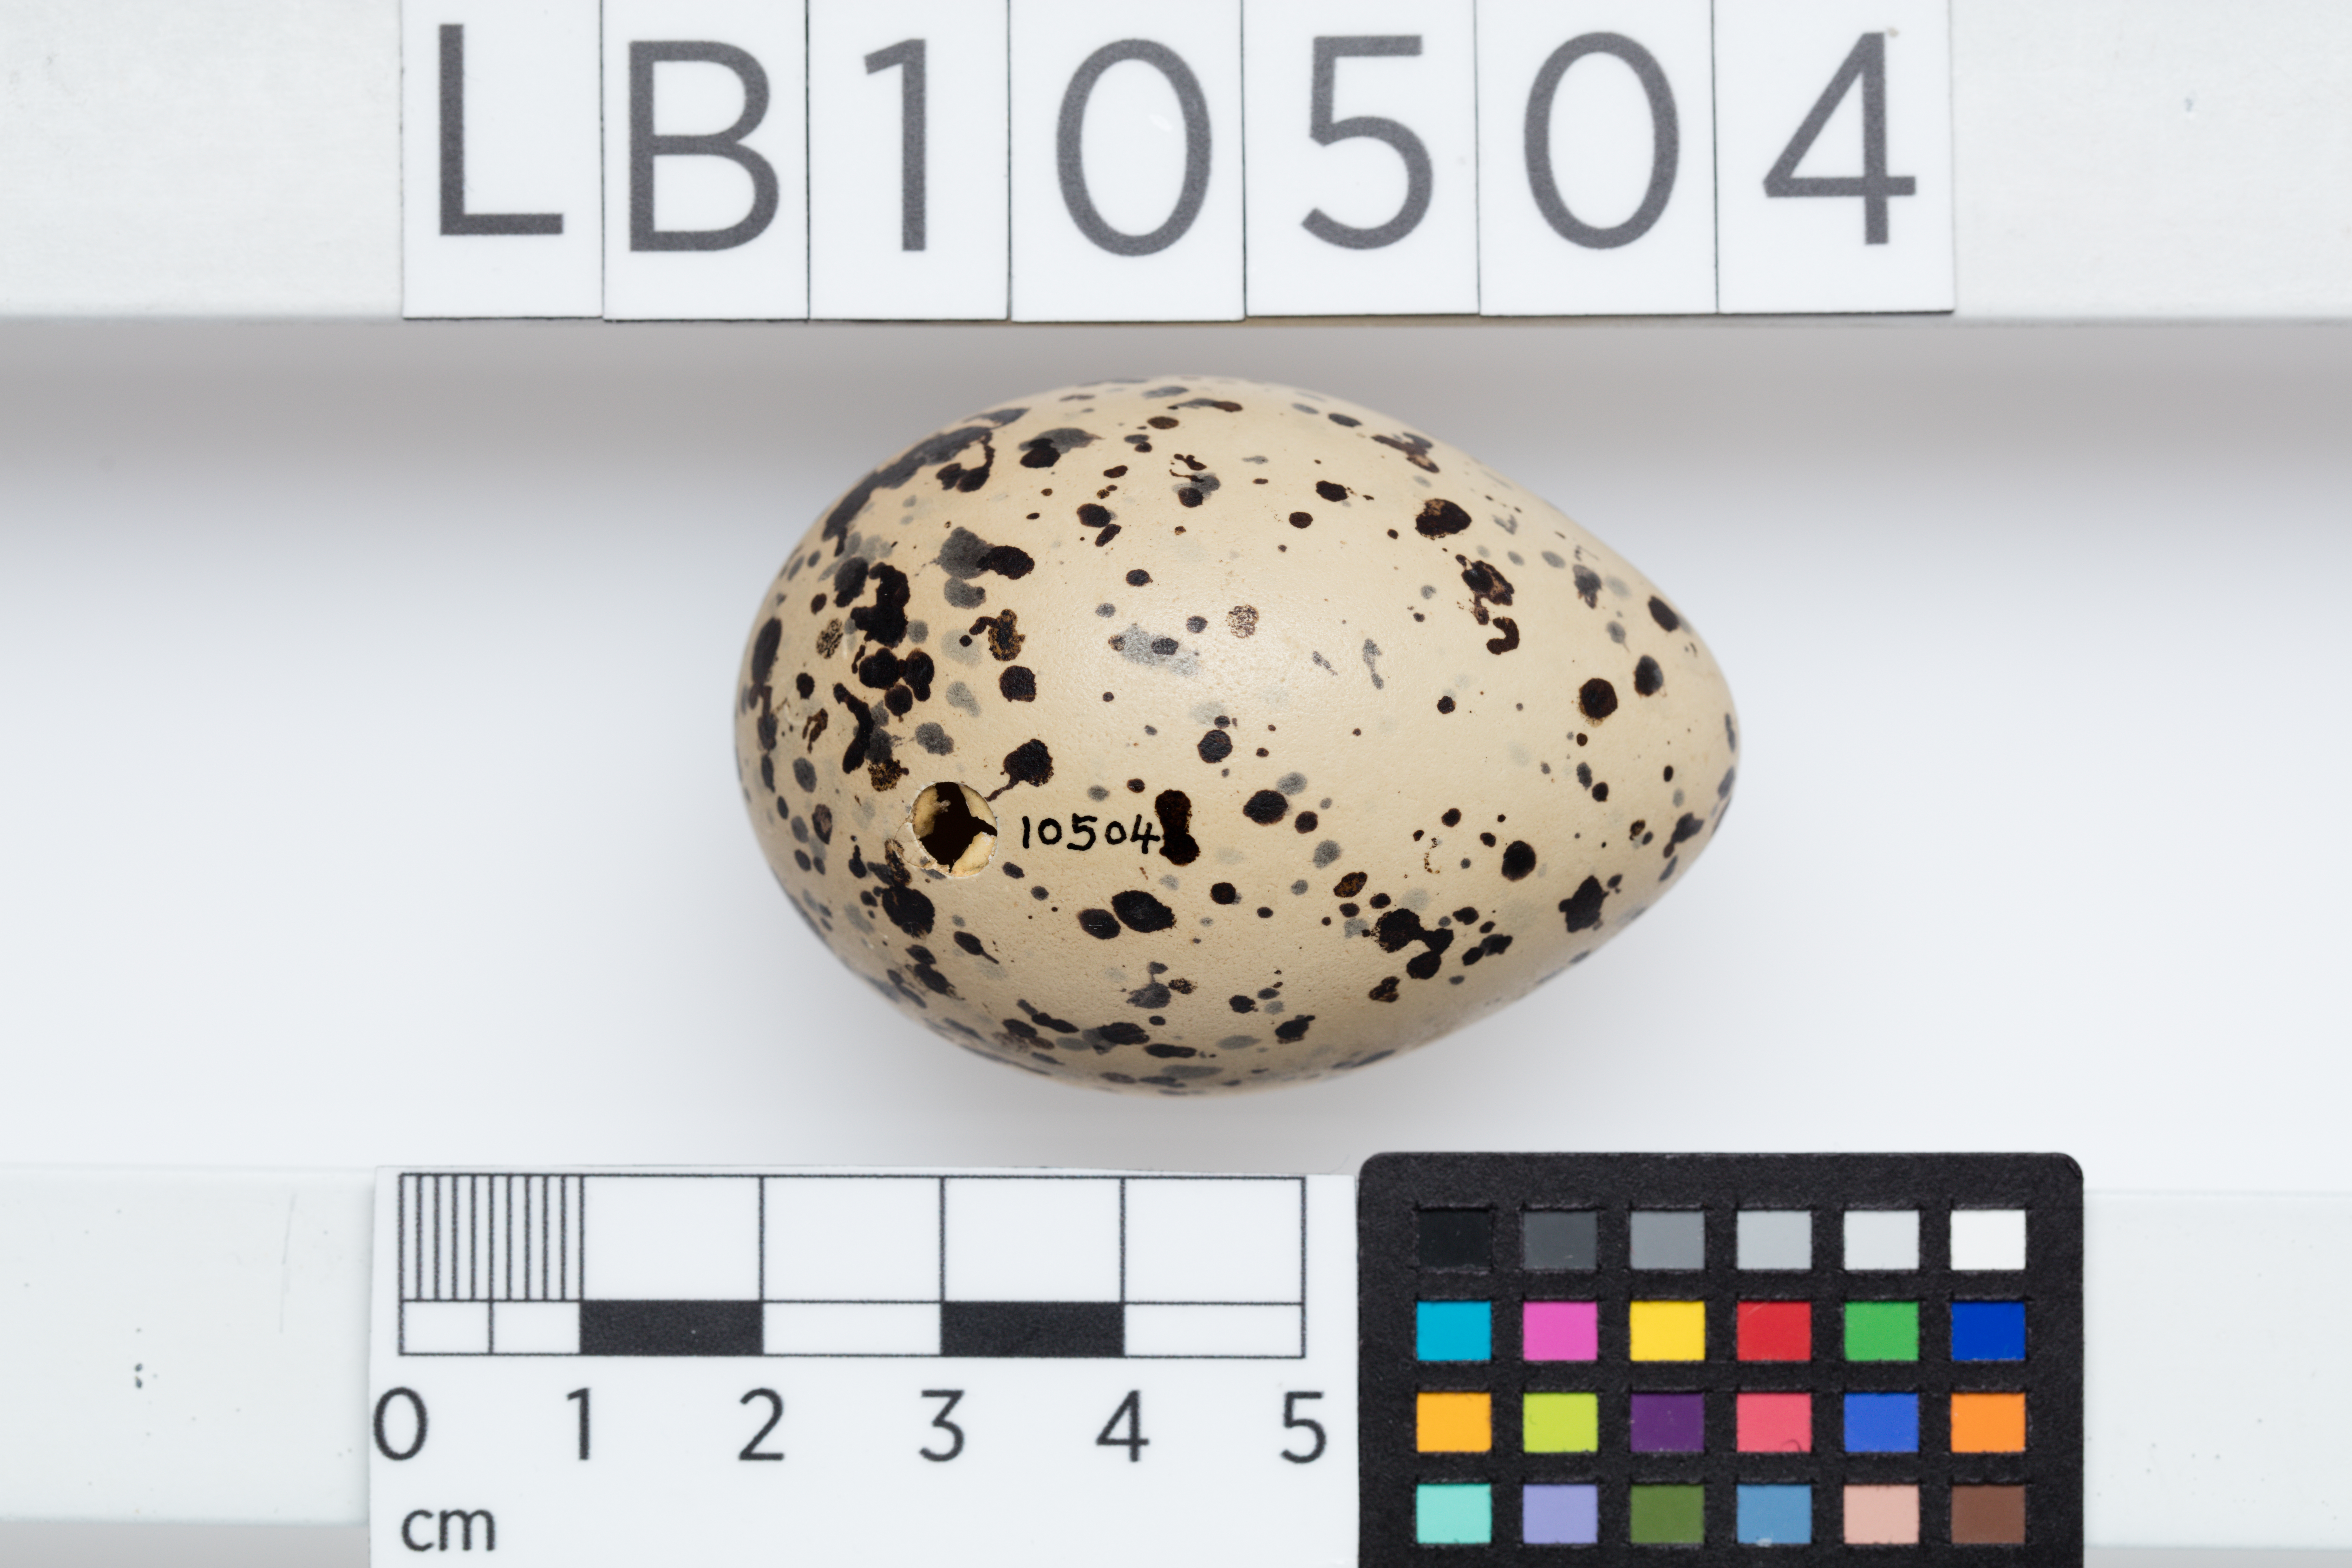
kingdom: Animalia
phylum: Chordata
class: Aves
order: Charadriiformes
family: Haematopodidae
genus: Haematopus
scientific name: Haematopus ostralegus
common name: Eurasian oystercatcher
